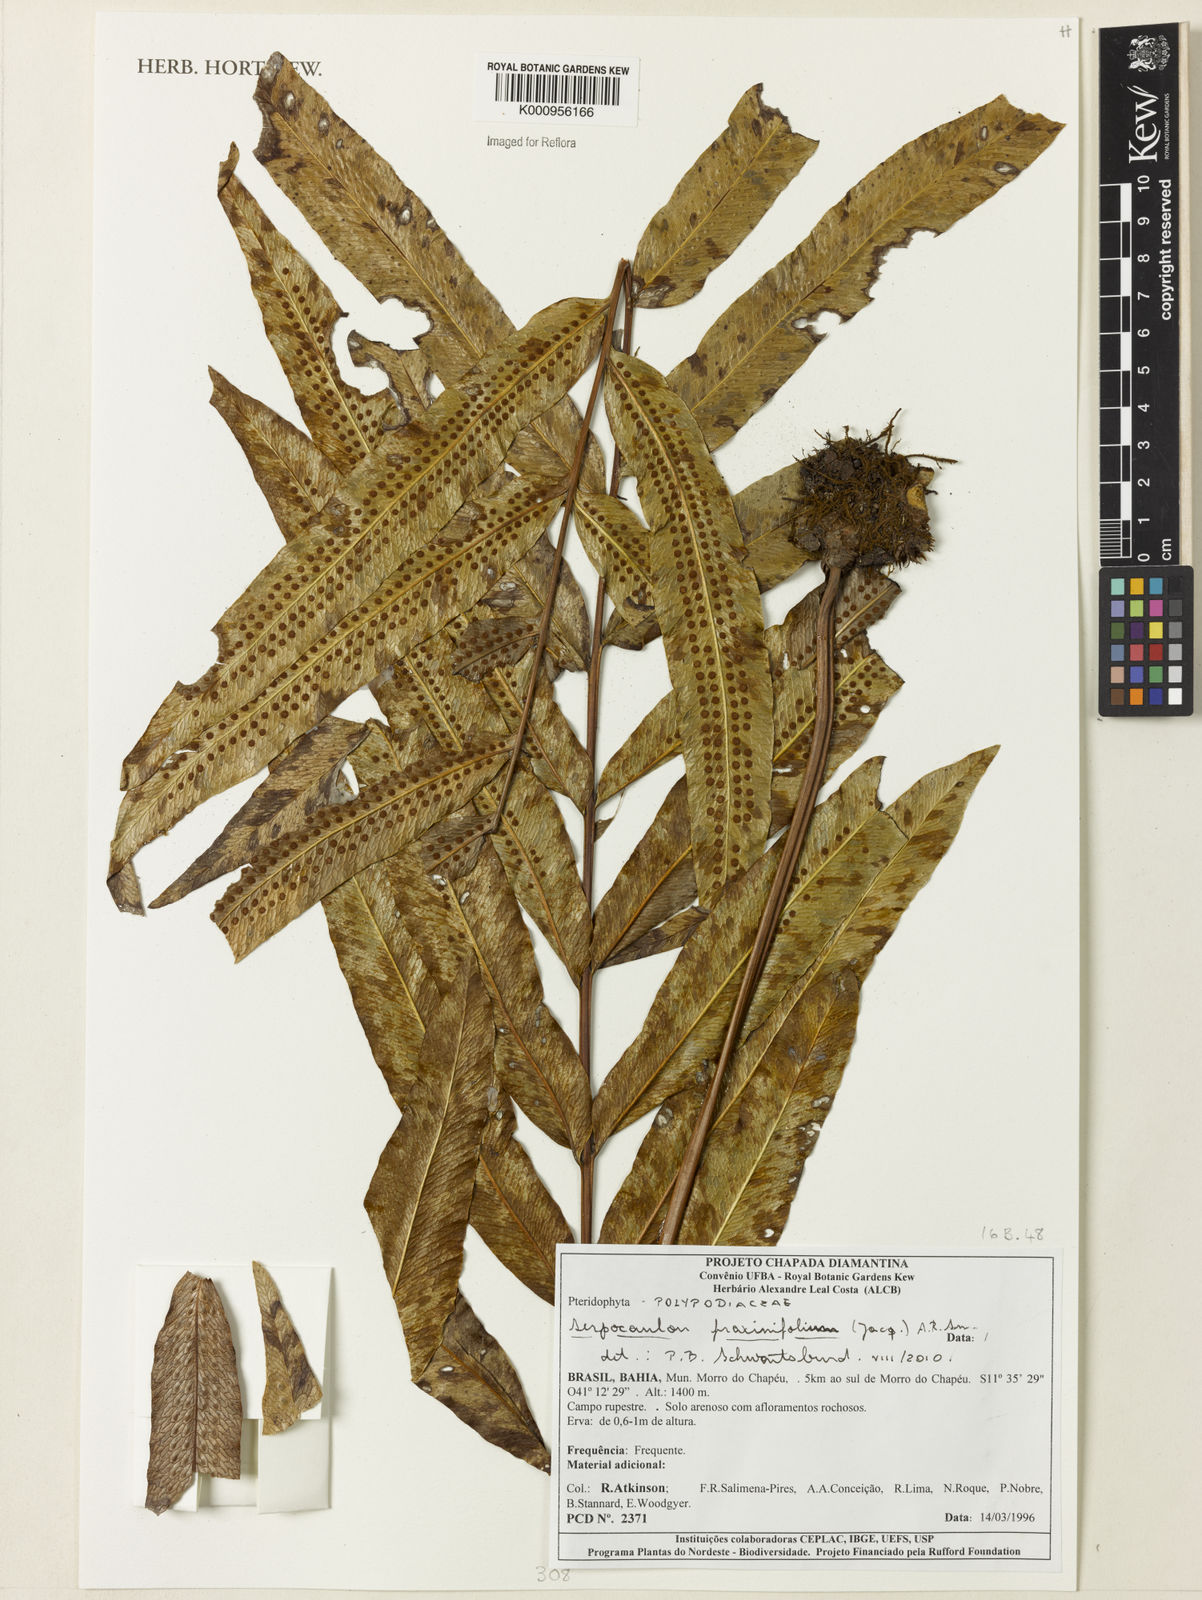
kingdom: Plantae
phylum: Tracheophyta
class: Polypodiopsida
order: Polypodiales
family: Polypodiaceae
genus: Serpocaulon
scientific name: Serpocaulon fraxinifolium
